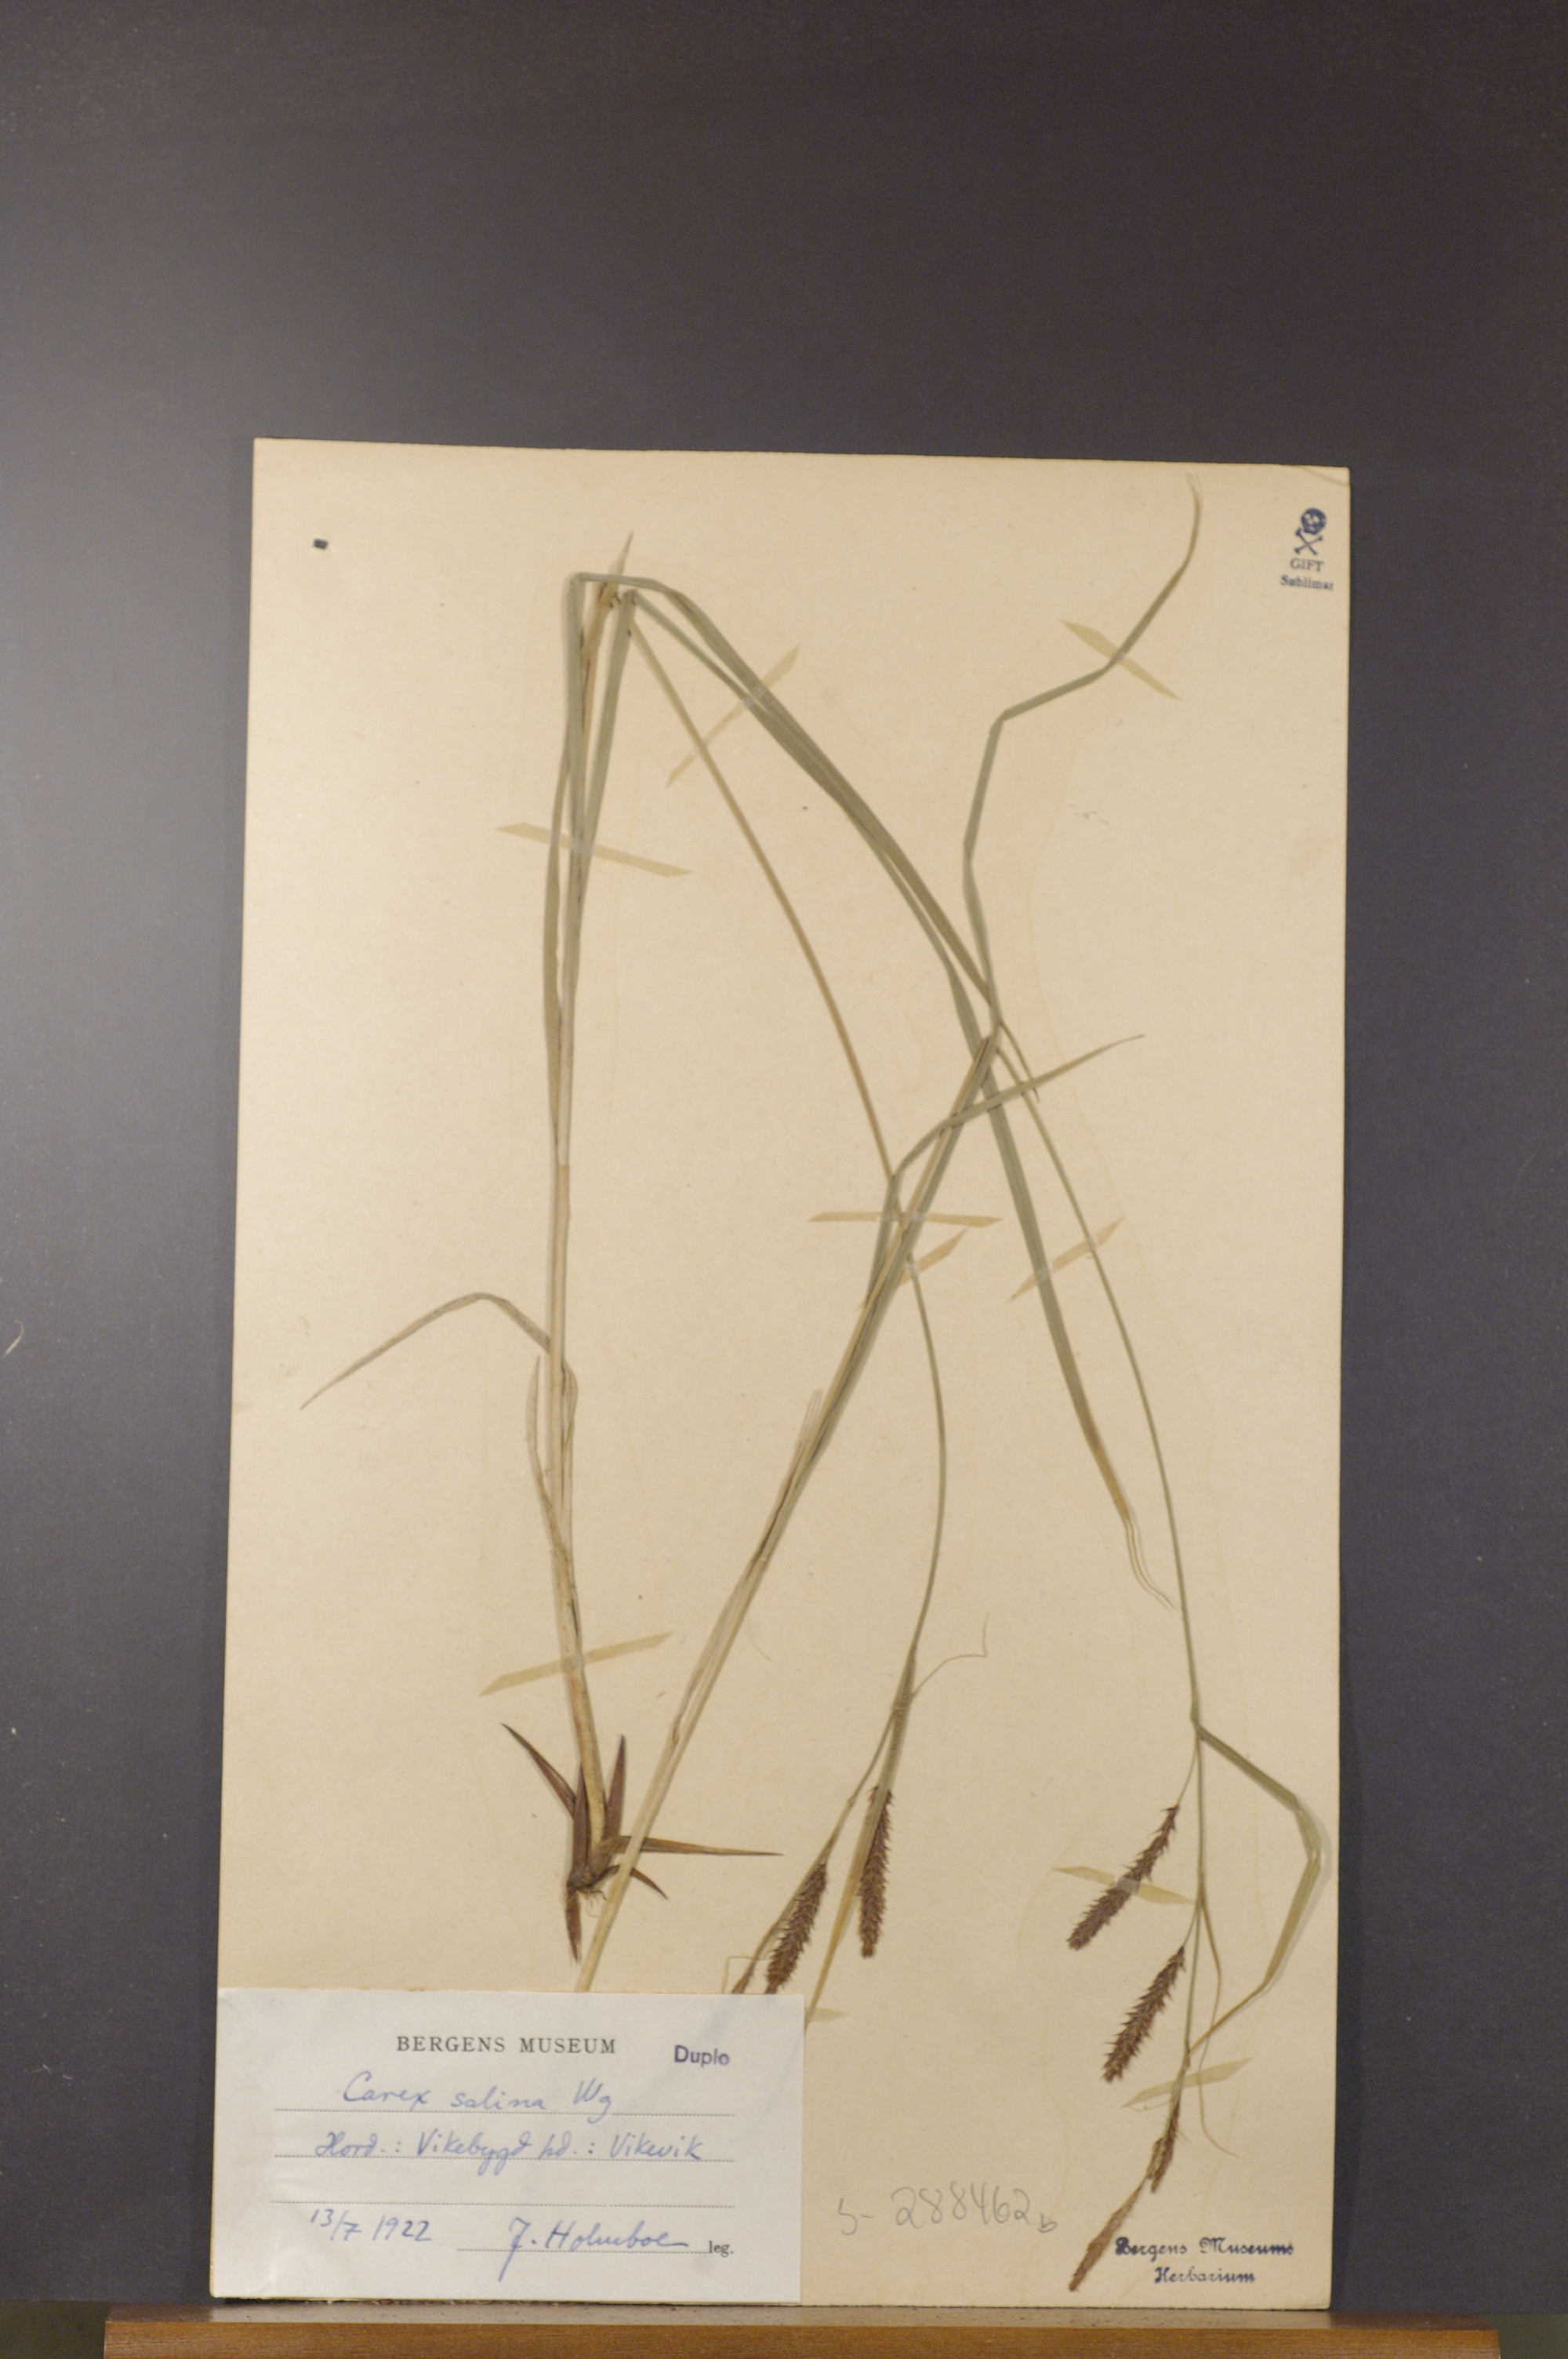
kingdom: Plantae
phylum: Tracheophyta
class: Liliopsida
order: Poales
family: Cyperaceae
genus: Carex
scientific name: Carex vacillans
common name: Sedge
